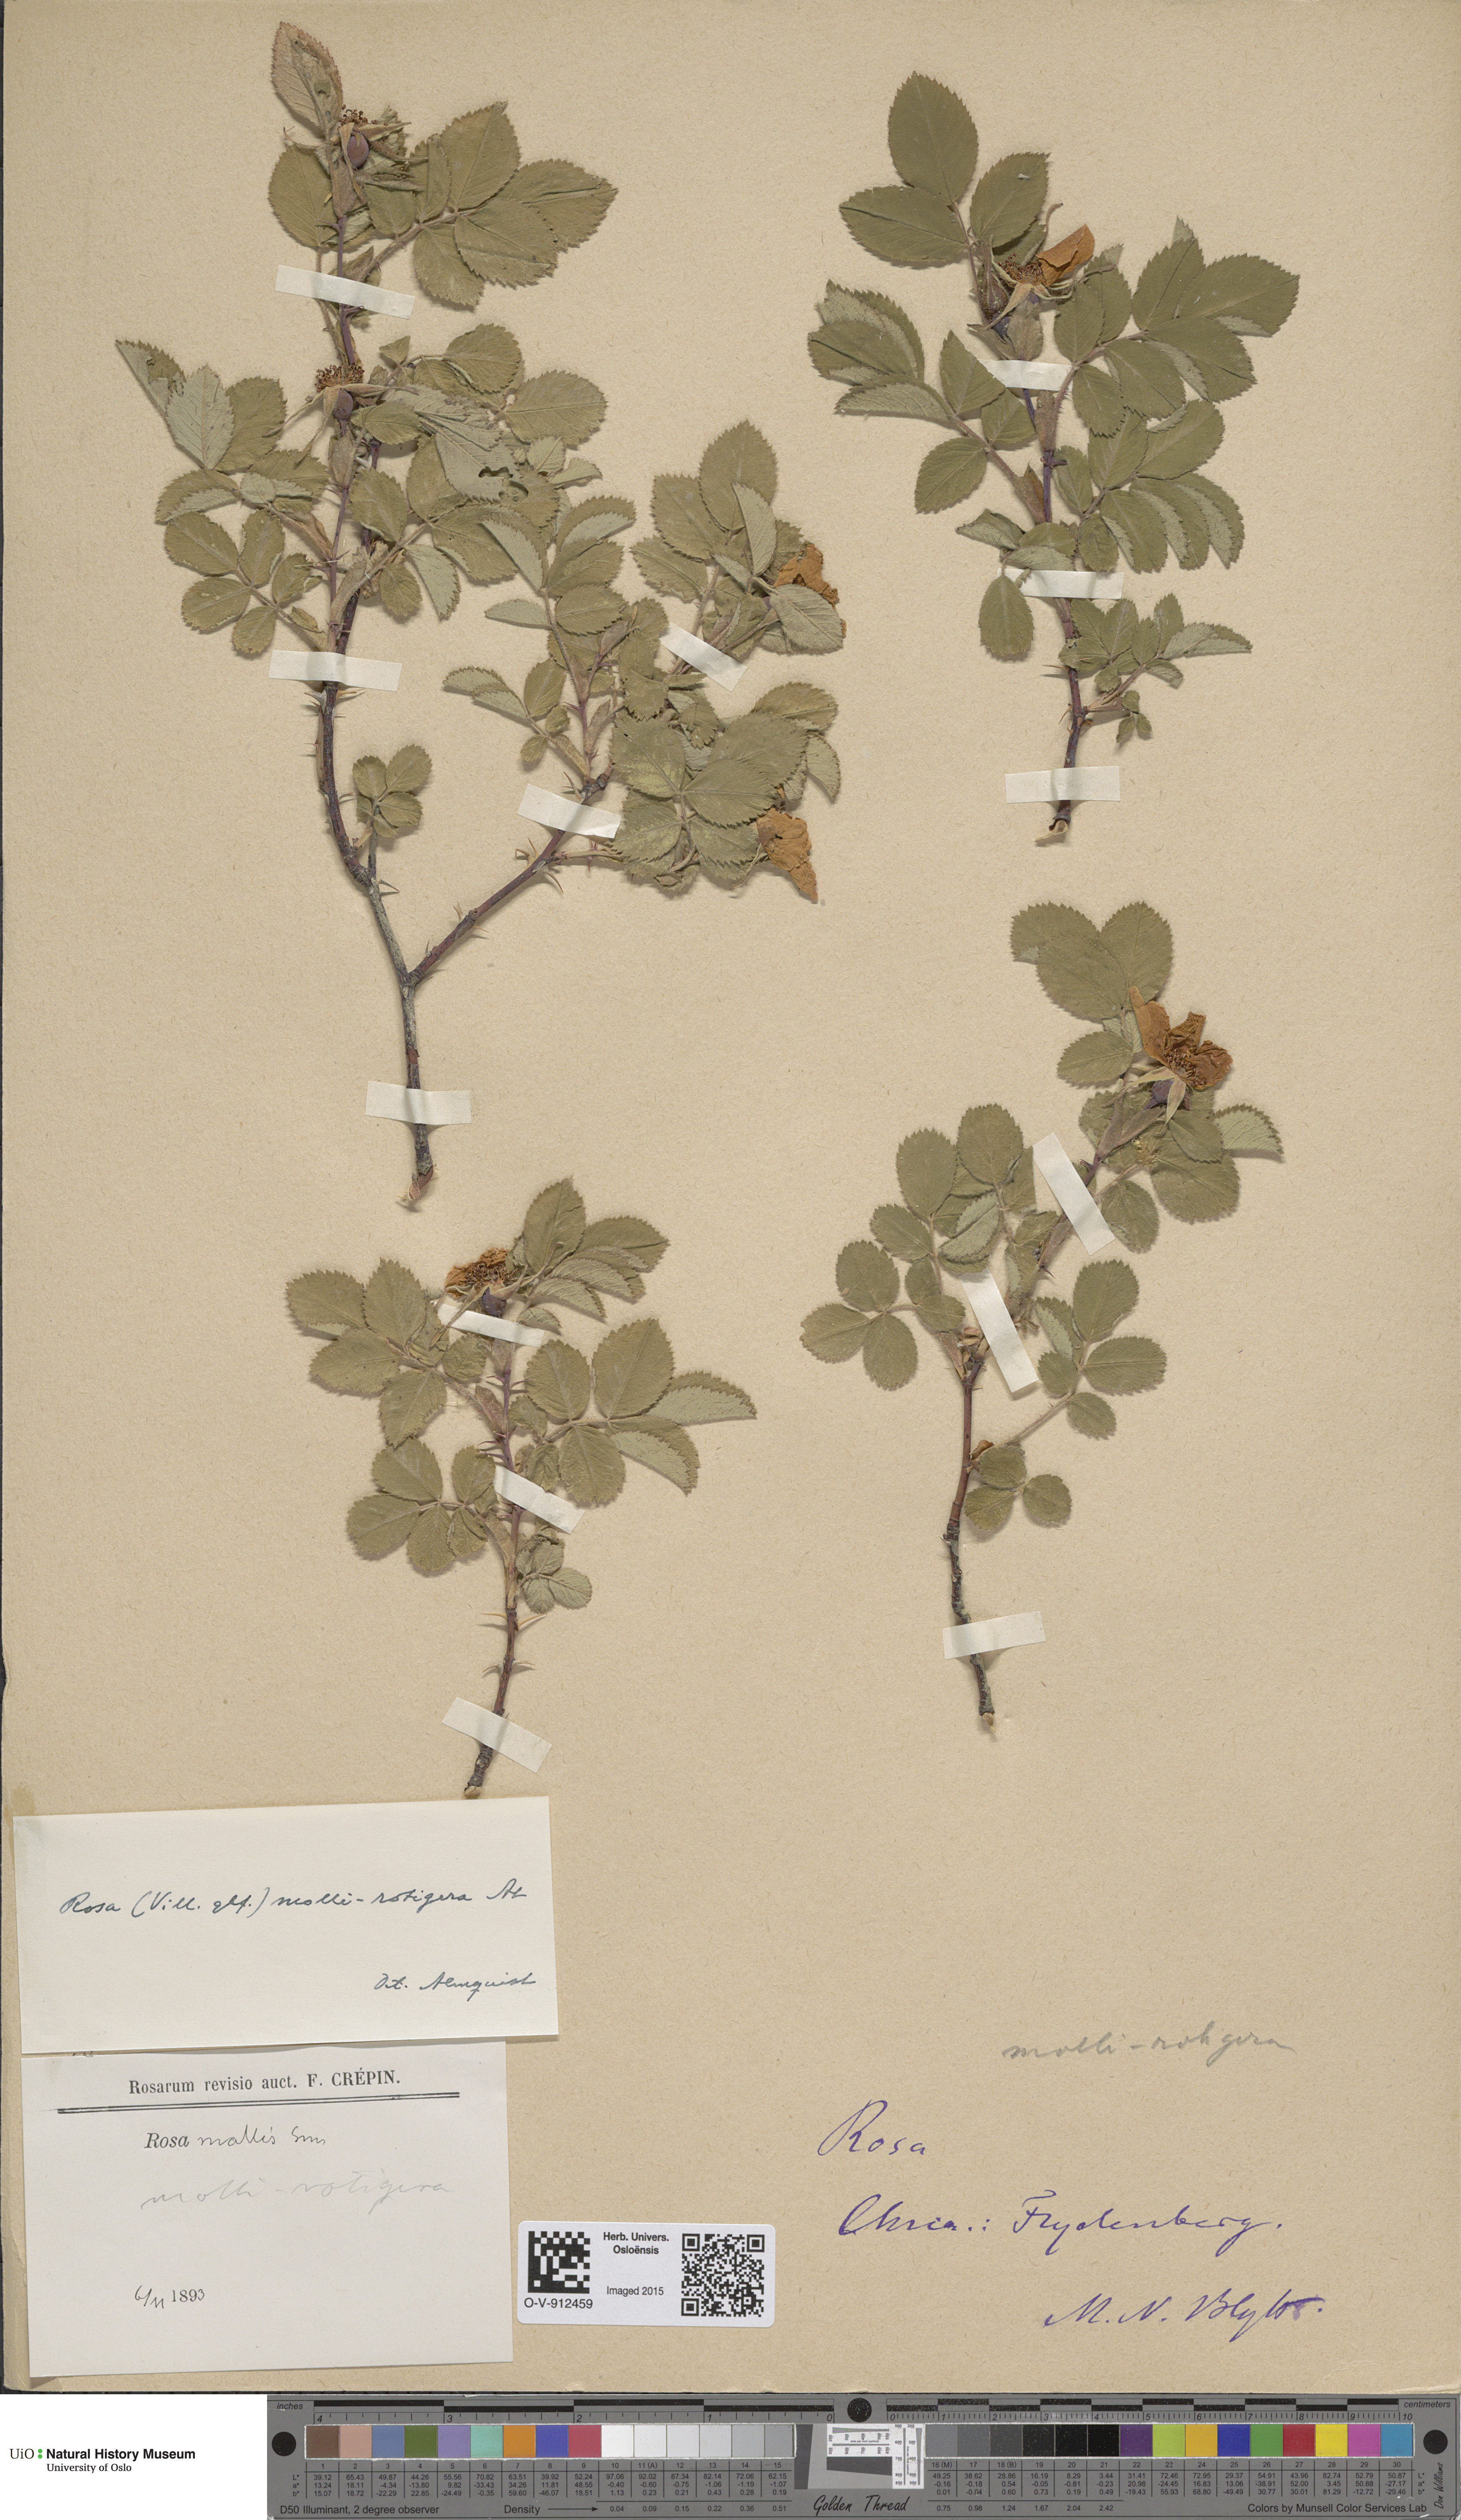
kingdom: Plantae
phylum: Tracheophyta
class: Magnoliopsida
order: Rosales
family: Rosaceae
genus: Rosa
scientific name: Rosa mollis
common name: Rose
